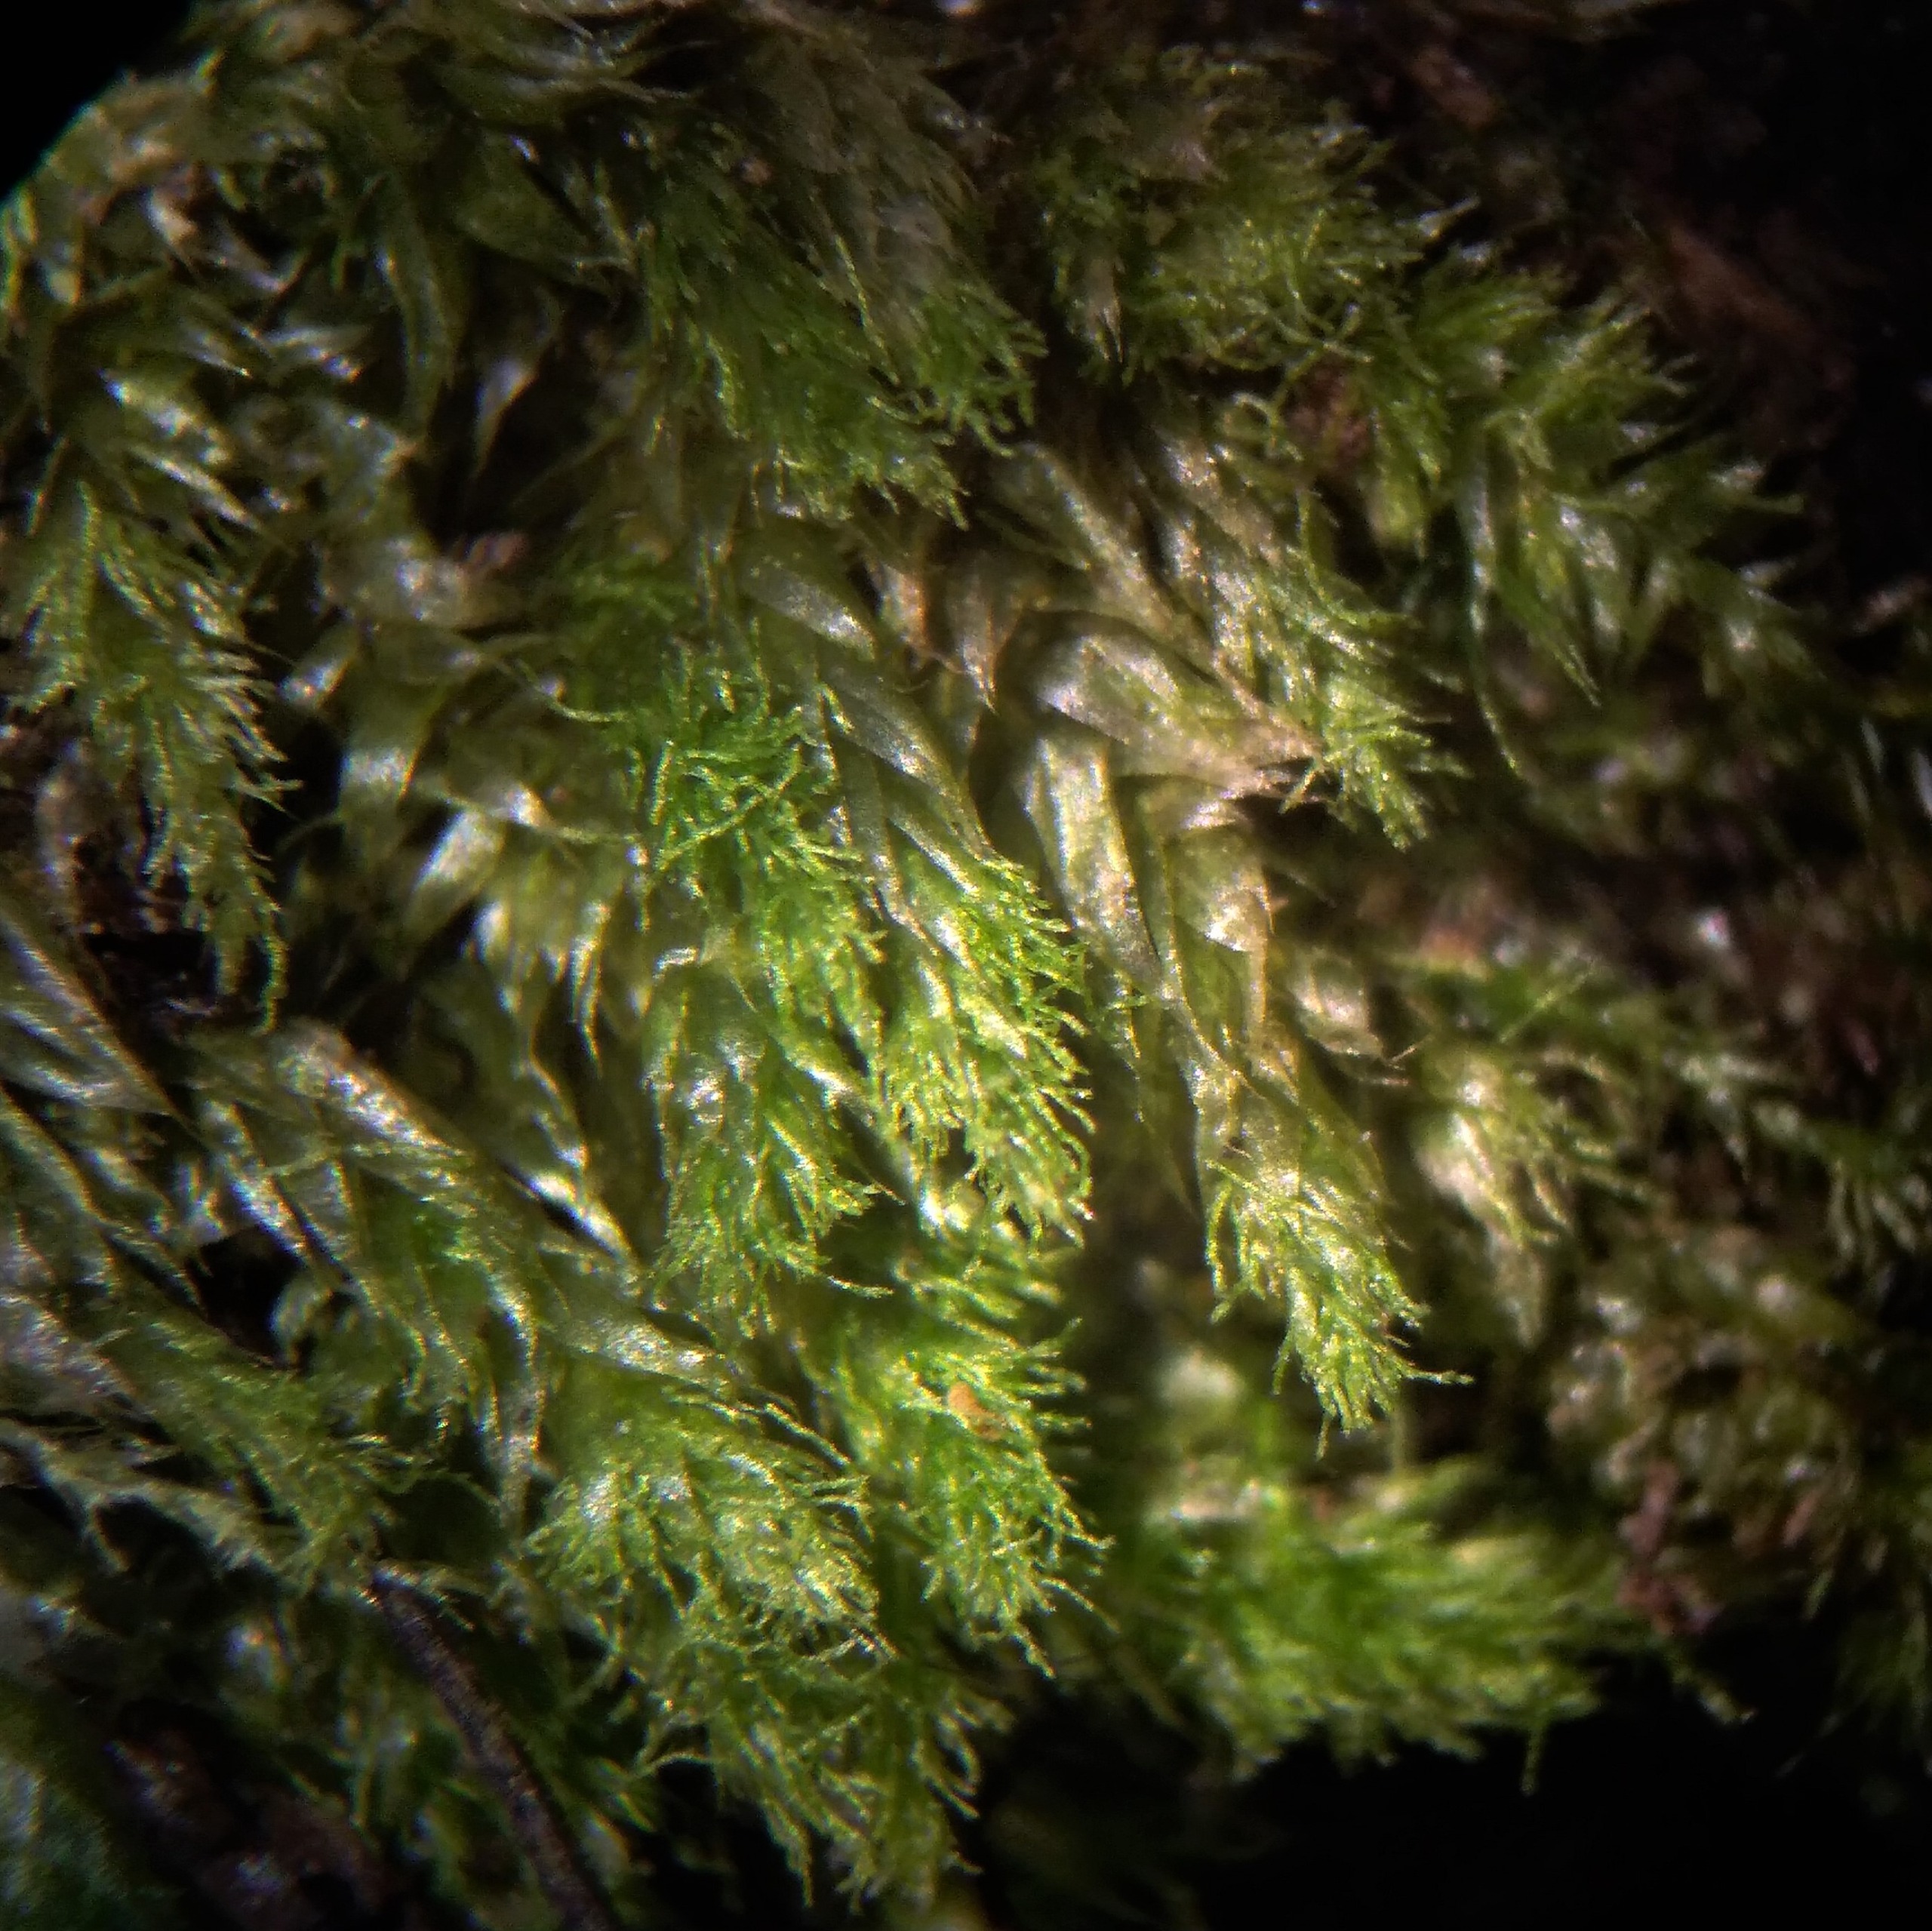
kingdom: Plantae
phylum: Bryophyta
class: Bryopsida
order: Hypnales
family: Plagiotheciaceae
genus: Pseudotaxiphyllum
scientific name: Pseudotaxiphyllum elegans
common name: Skinnende ynglegren
